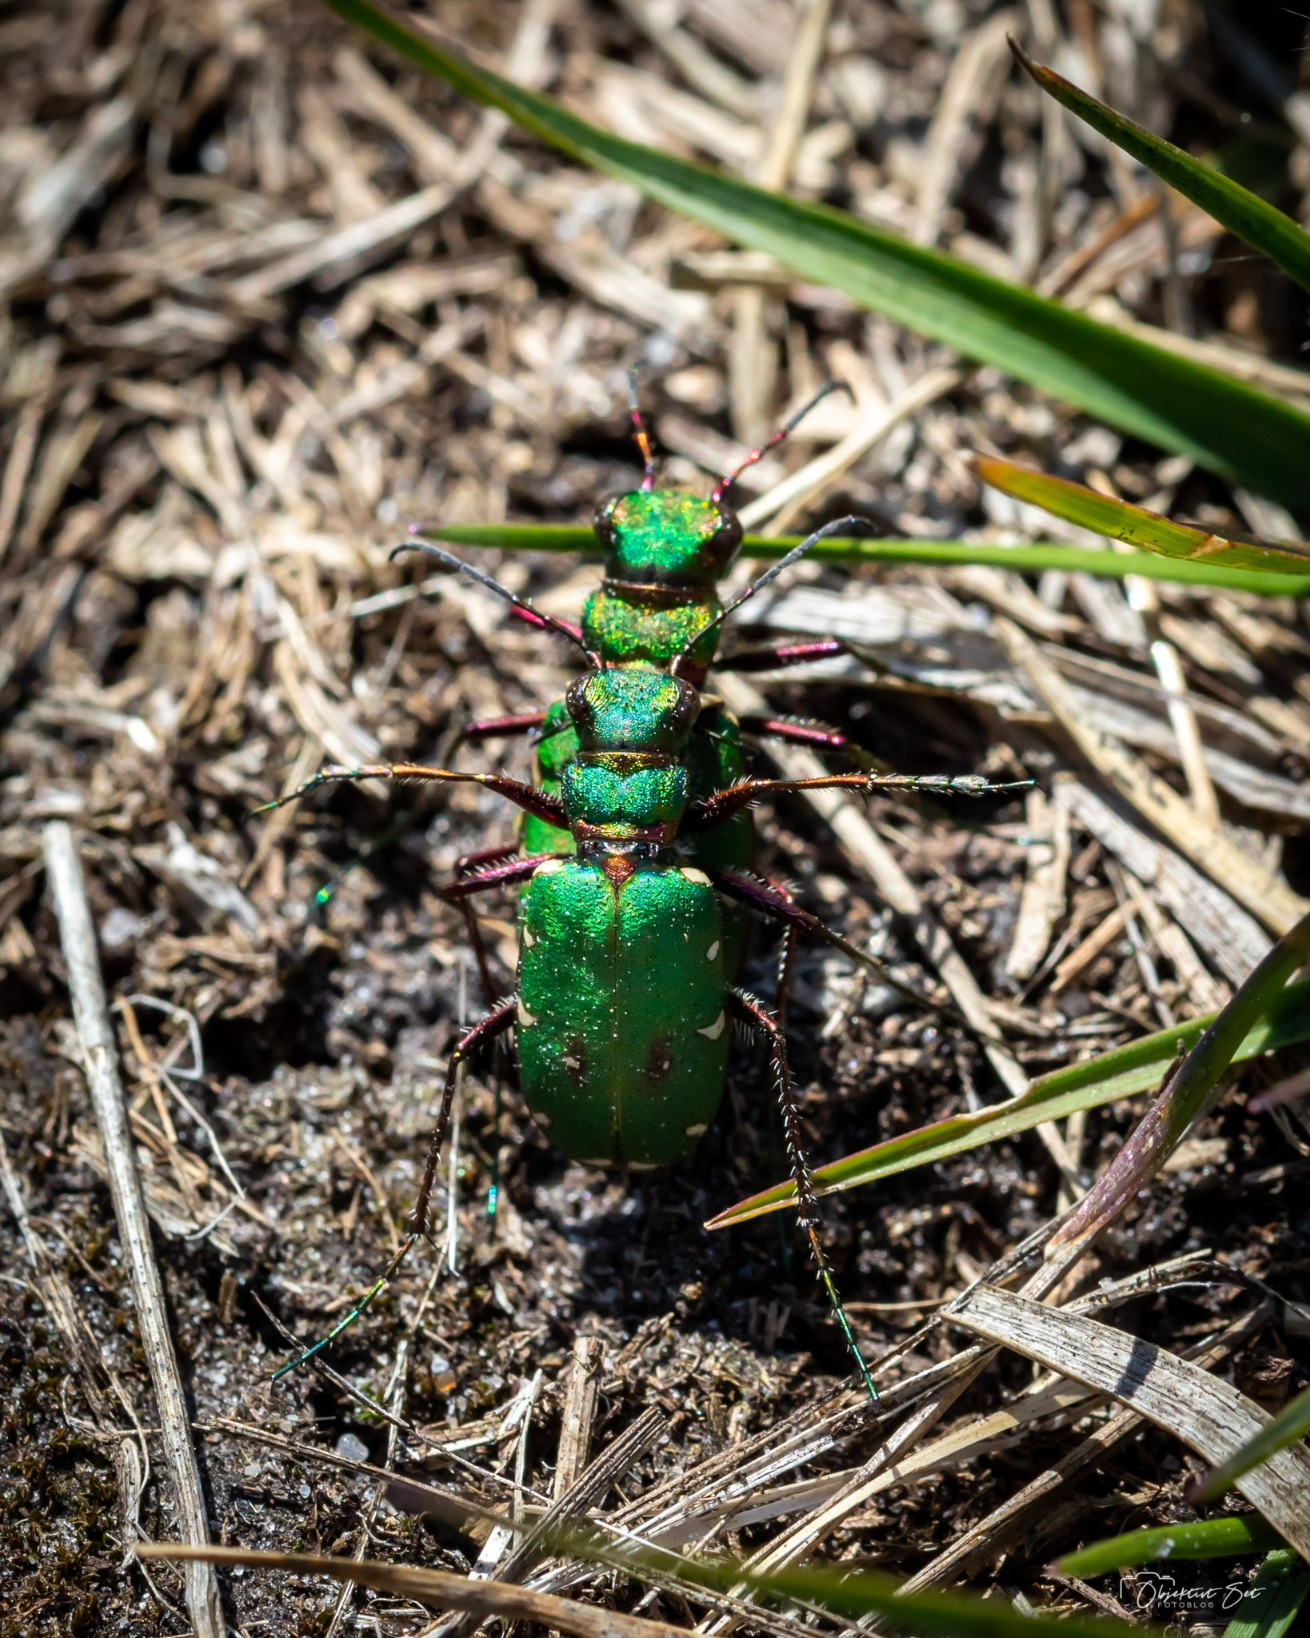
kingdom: Animalia
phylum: Arthropoda
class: Insecta
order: Coleoptera
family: Carabidae
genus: Cicindela
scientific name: Cicindela campestris
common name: Grøn sandspringer
